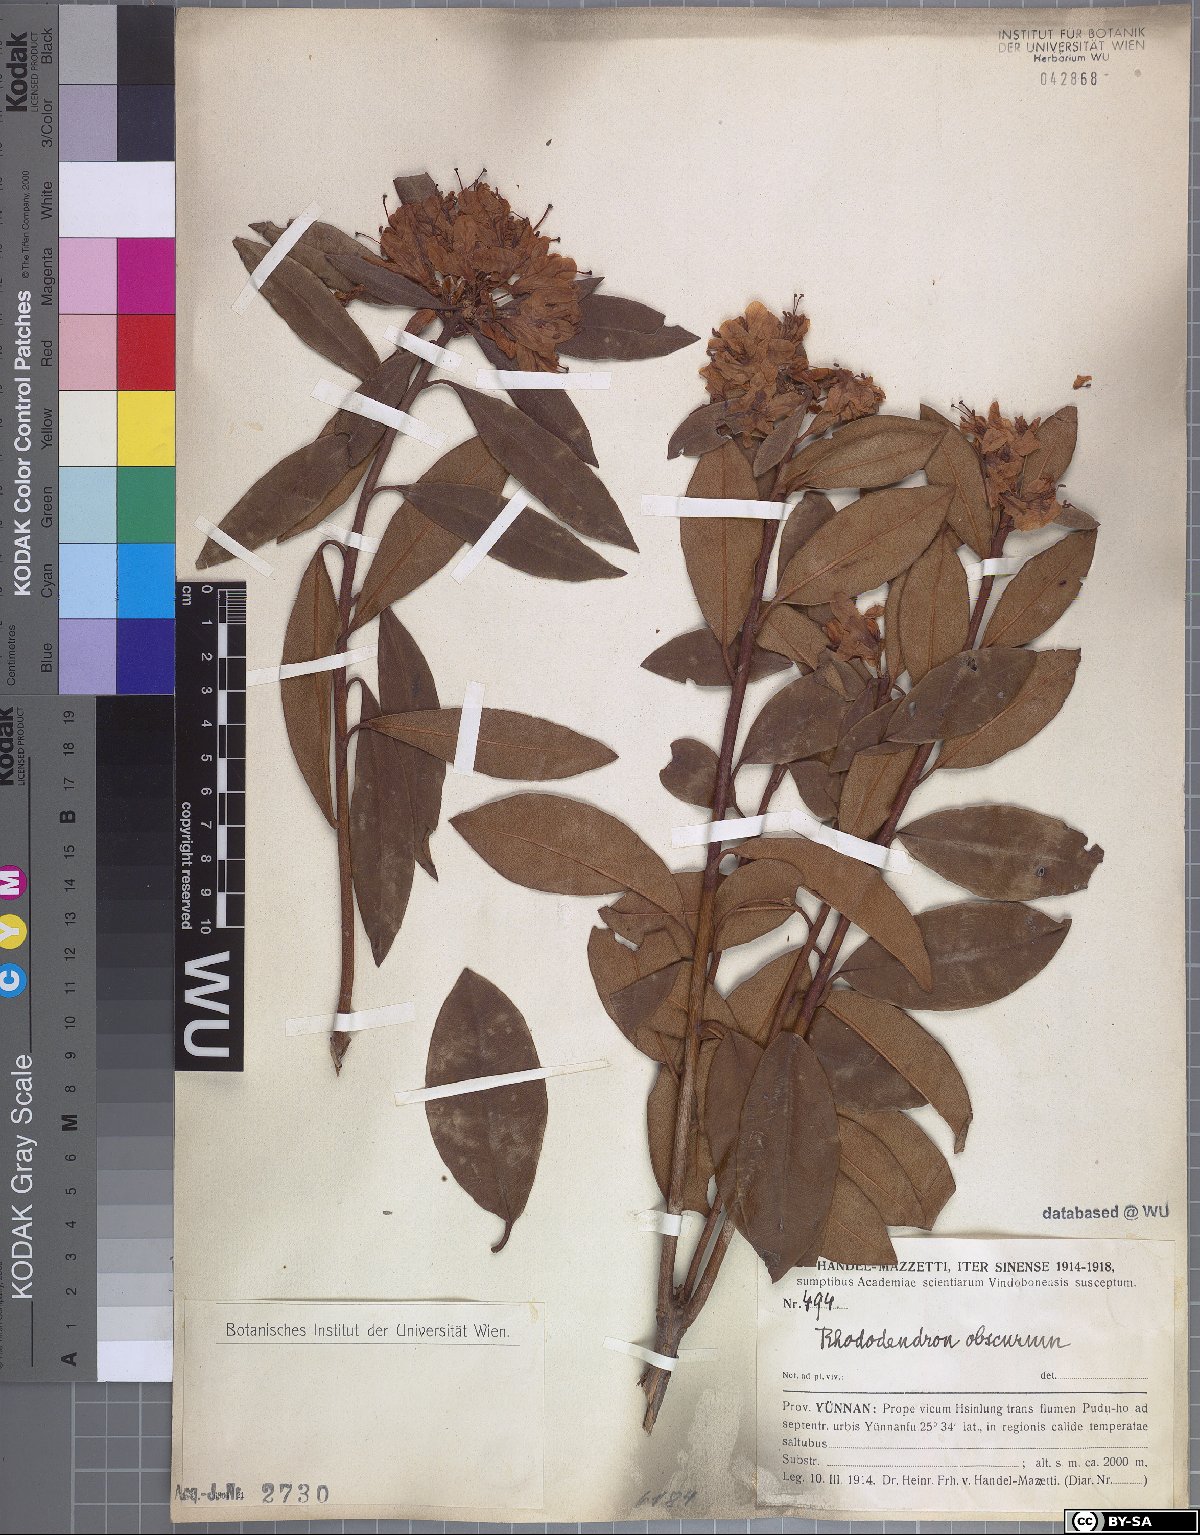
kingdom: Plantae
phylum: Tracheophyta
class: Magnoliopsida
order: Ericales
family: Ericaceae
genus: Rhododendron
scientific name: Rhododendron benomense
